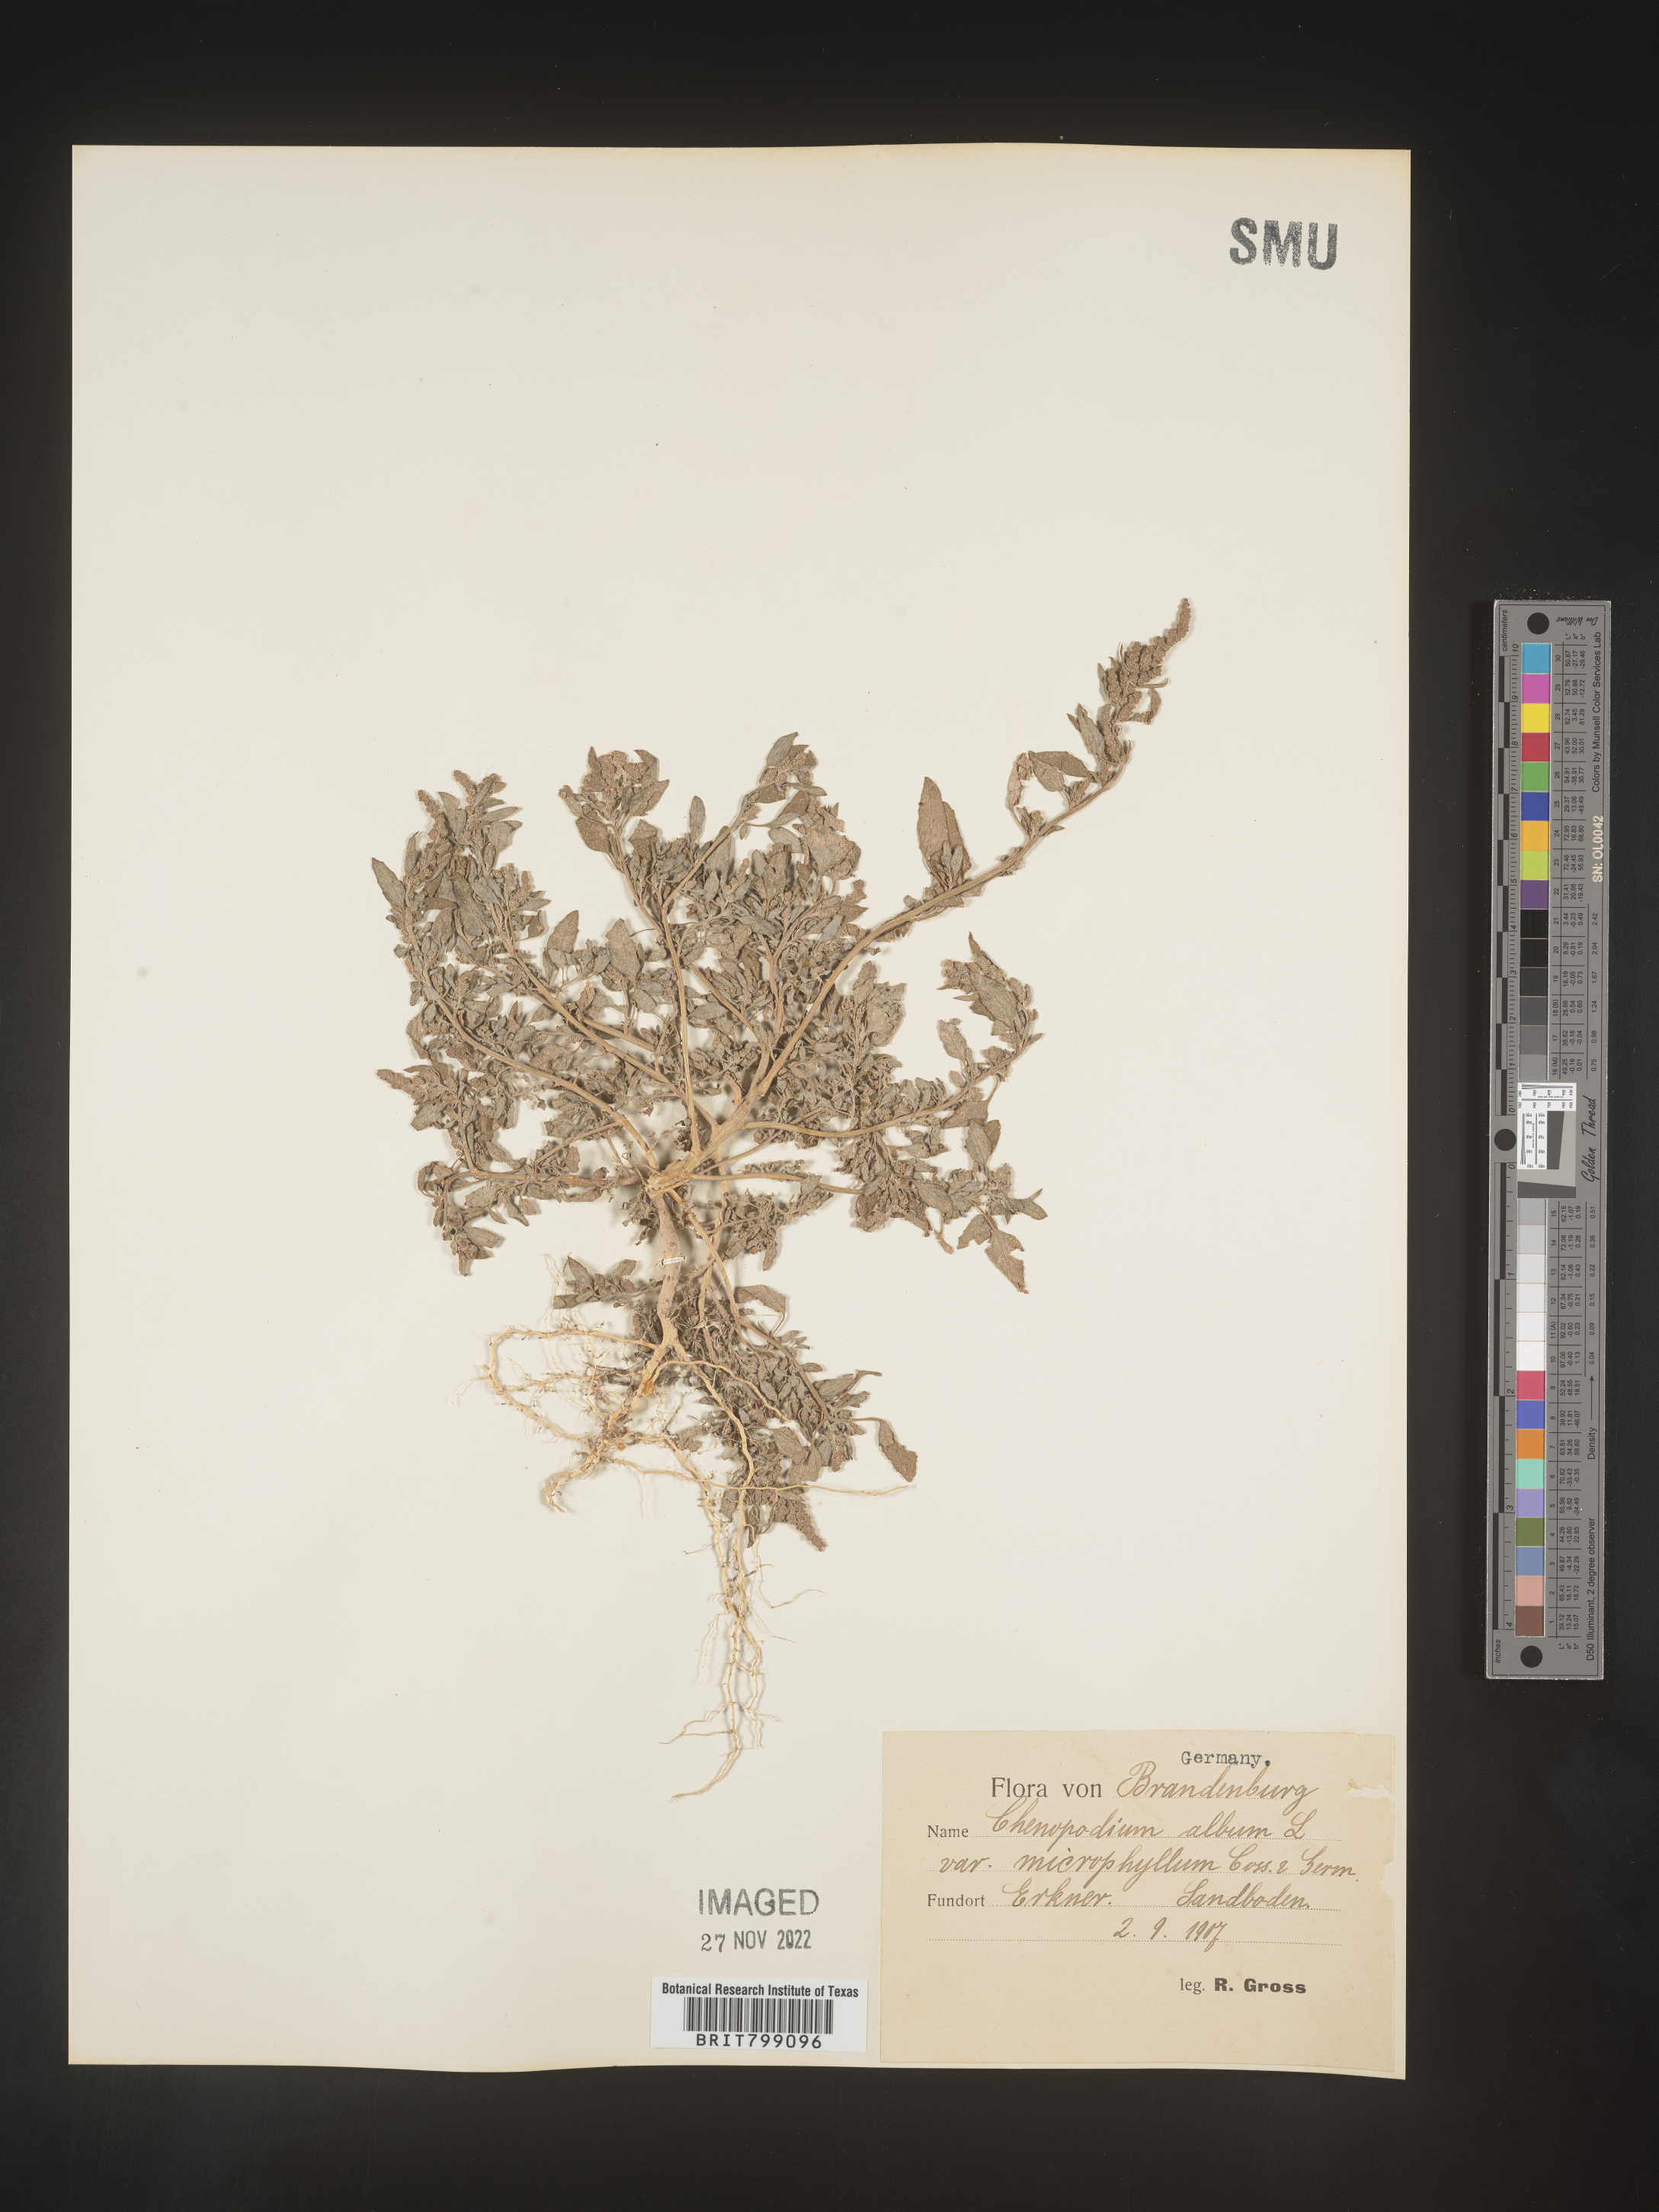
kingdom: Plantae
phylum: Tracheophyta
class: Magnoliopsida
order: Caryophyllales
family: Amaranthaceae
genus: Chenopodium
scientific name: Chenopodium
